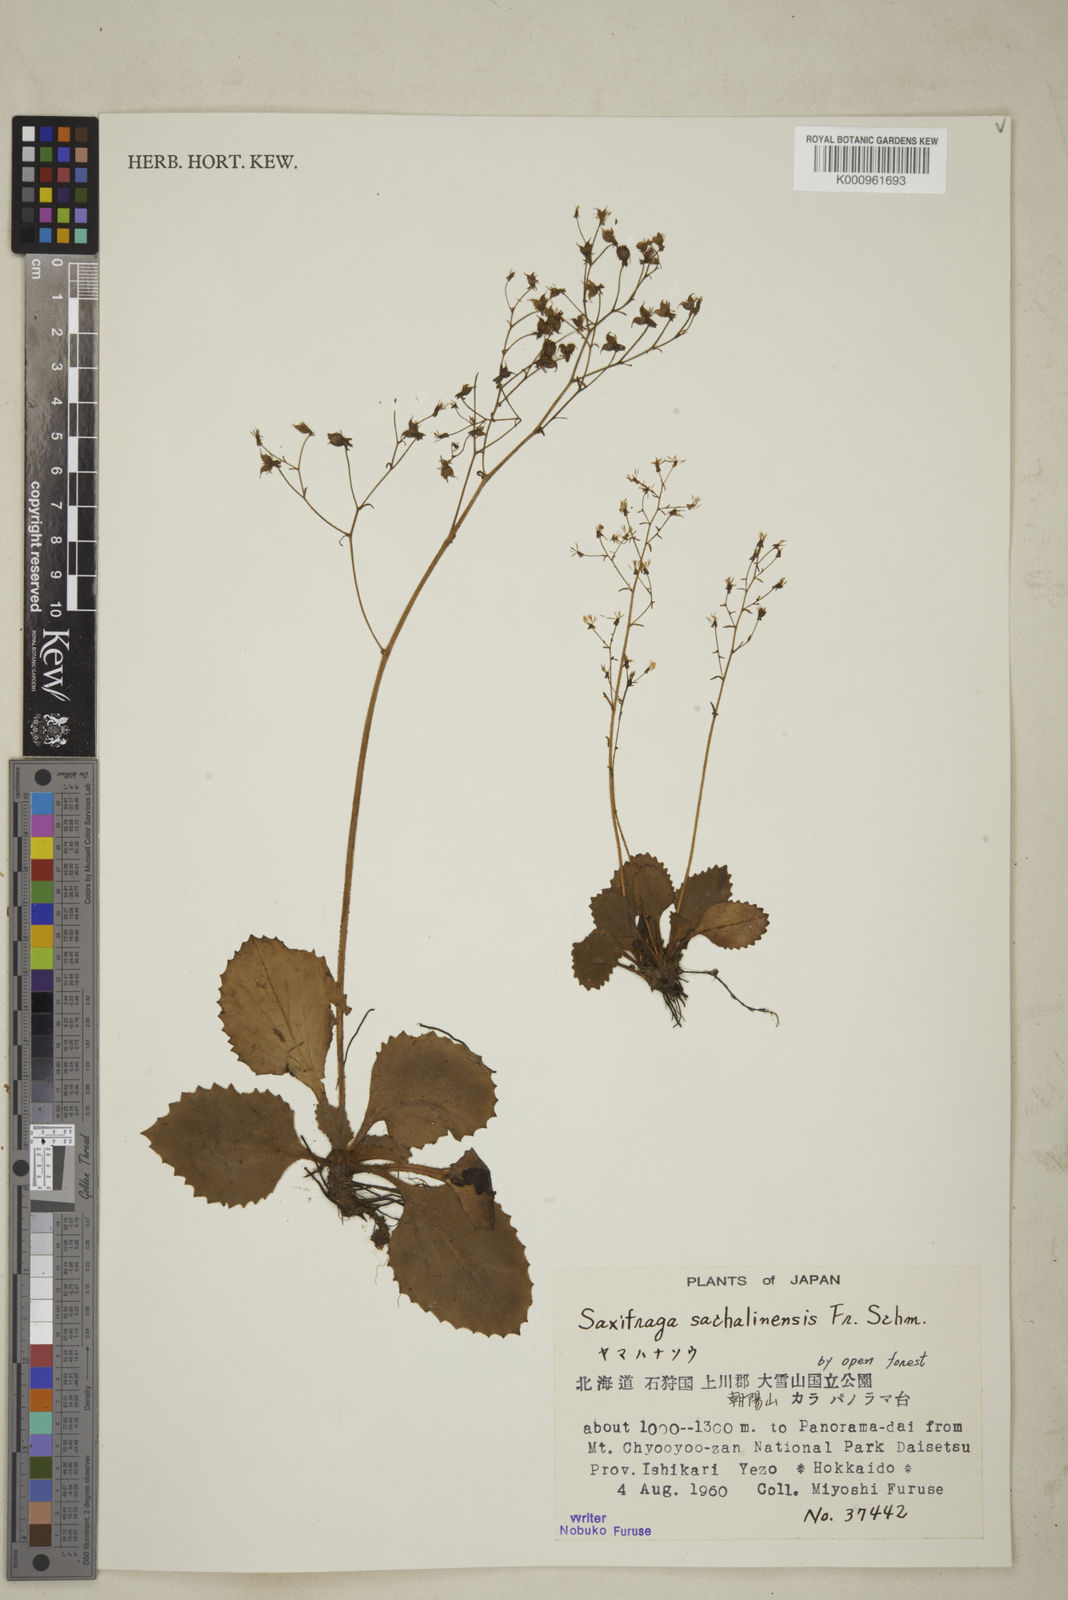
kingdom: Plantae
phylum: Tracheophyta
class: Magnoliopsida
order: Saxifragales
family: Saxifragaceae
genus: Micranthes
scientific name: Micranthes sachalinensis
